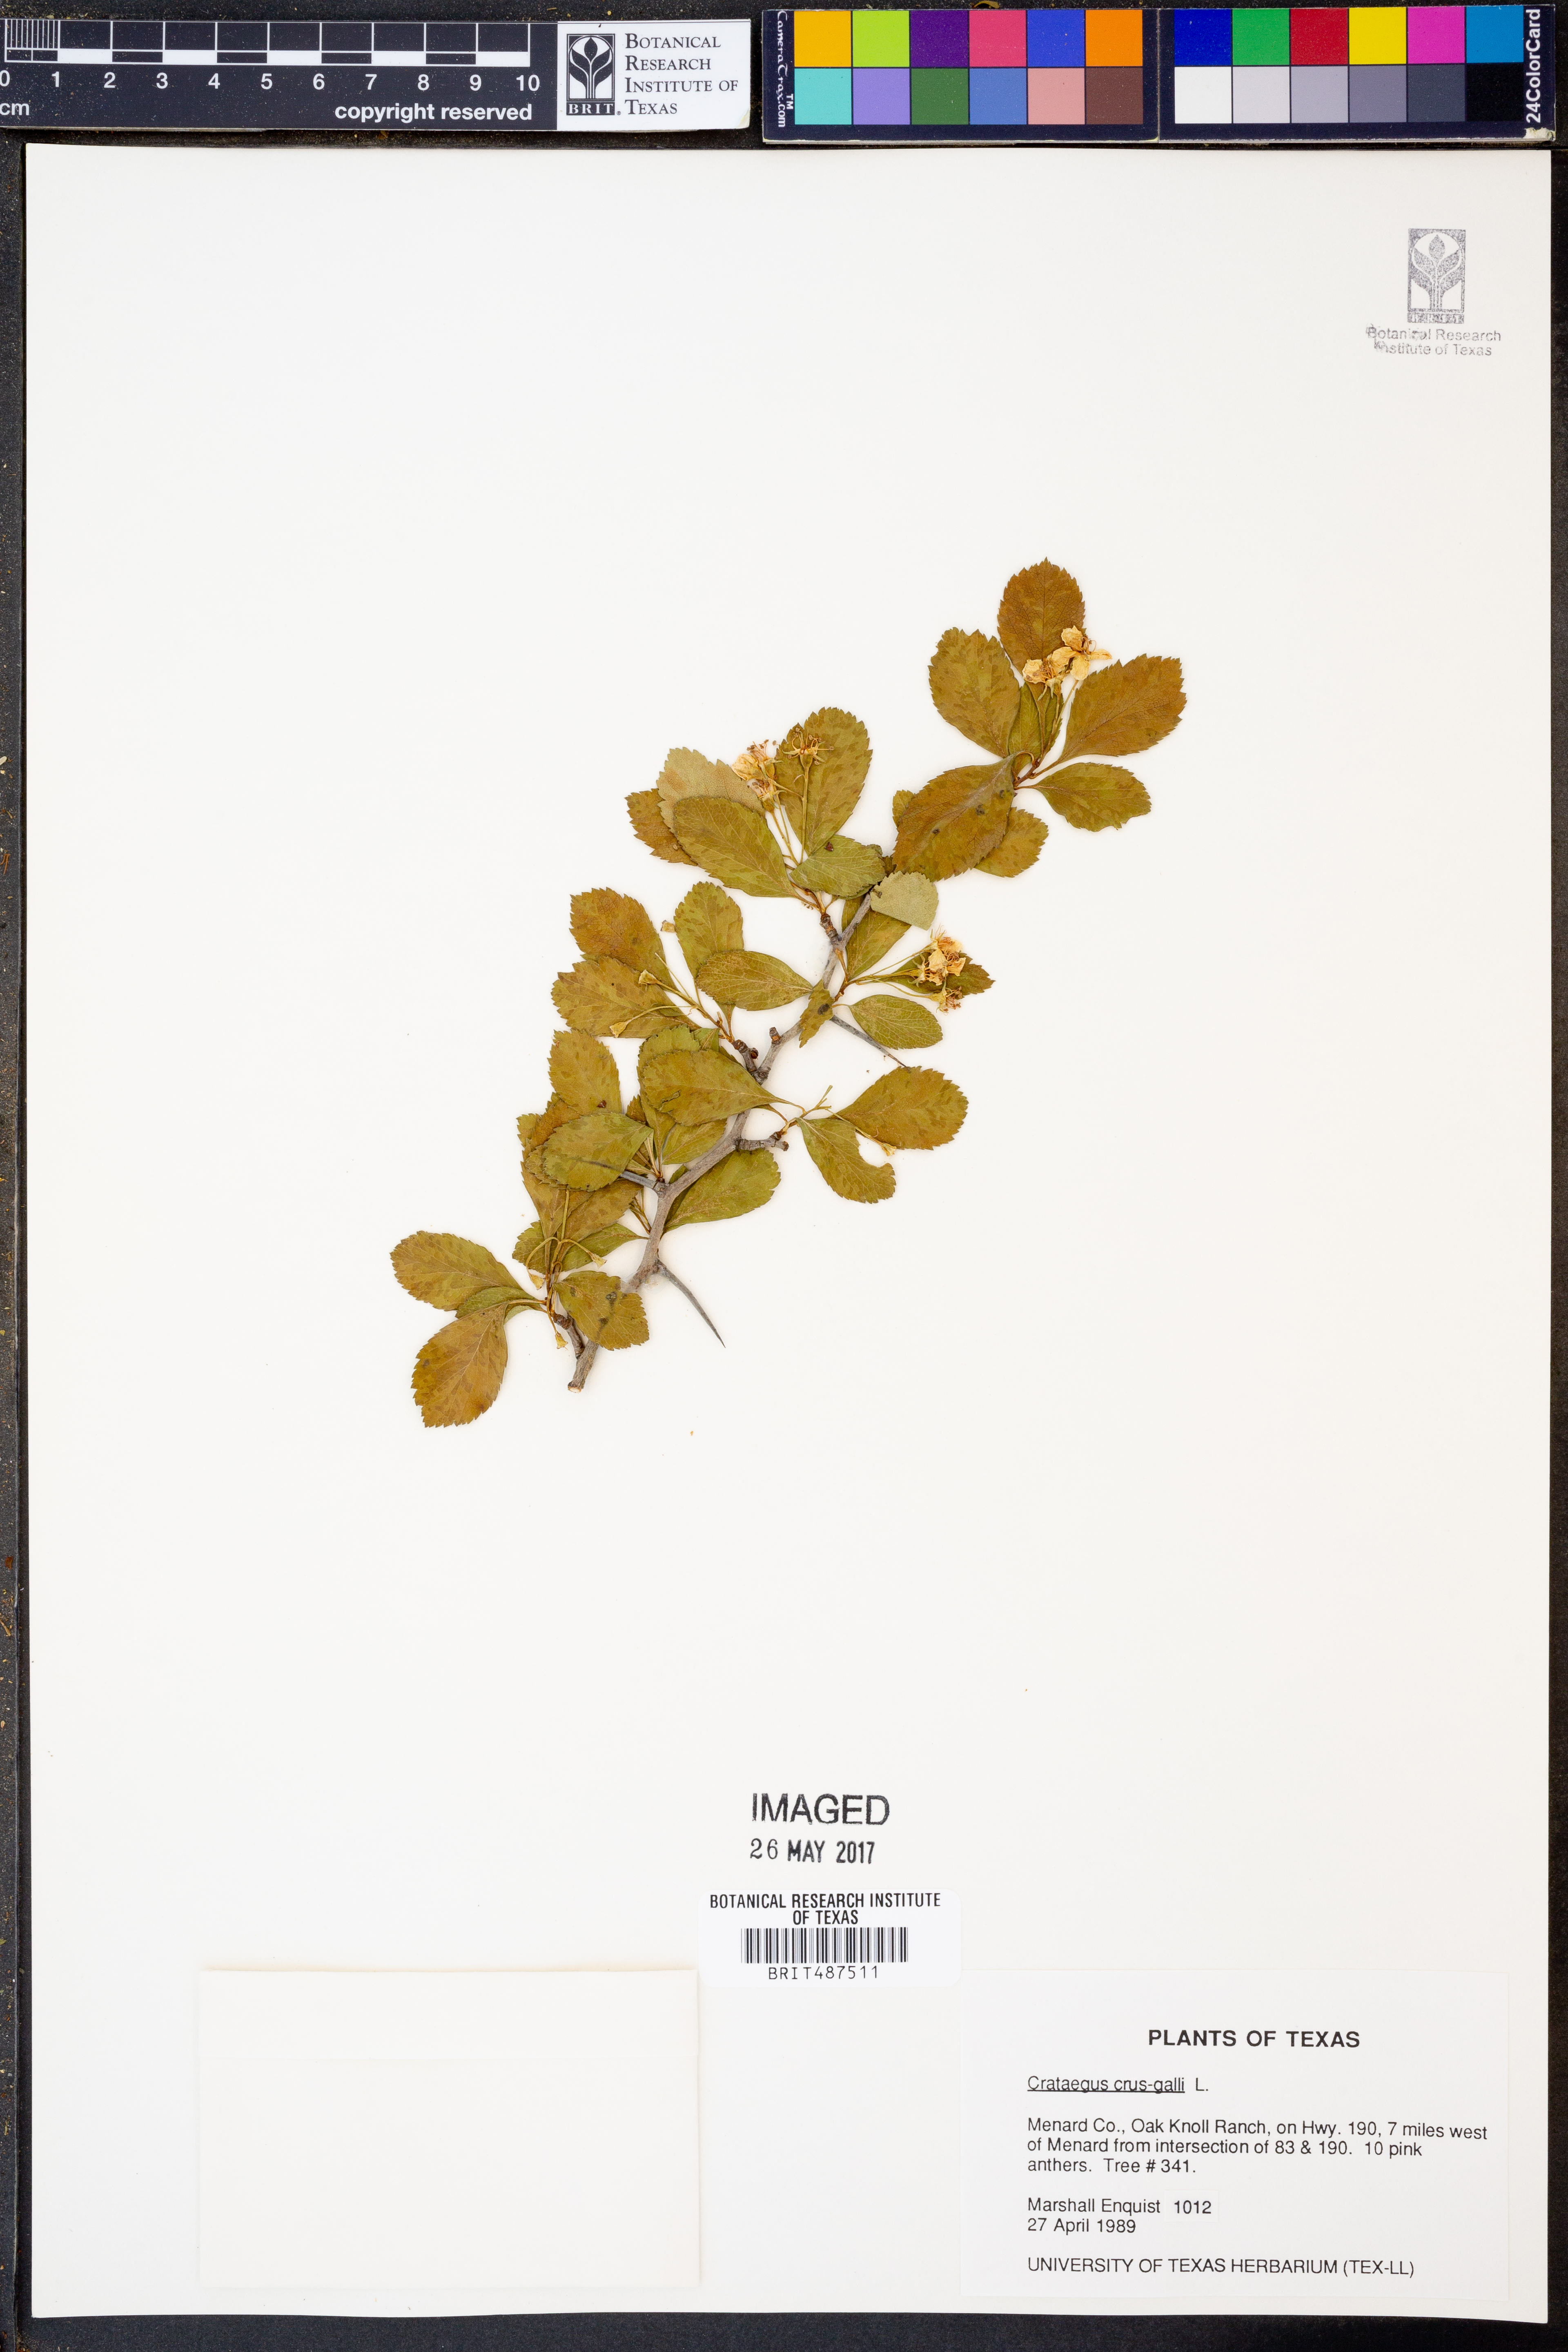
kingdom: Plantae
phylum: Tracheophyta
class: Magnoliopsida
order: Rosales
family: Rosaceae
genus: Crataegus
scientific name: Crataegus crus-galli
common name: Cockspurthorn
